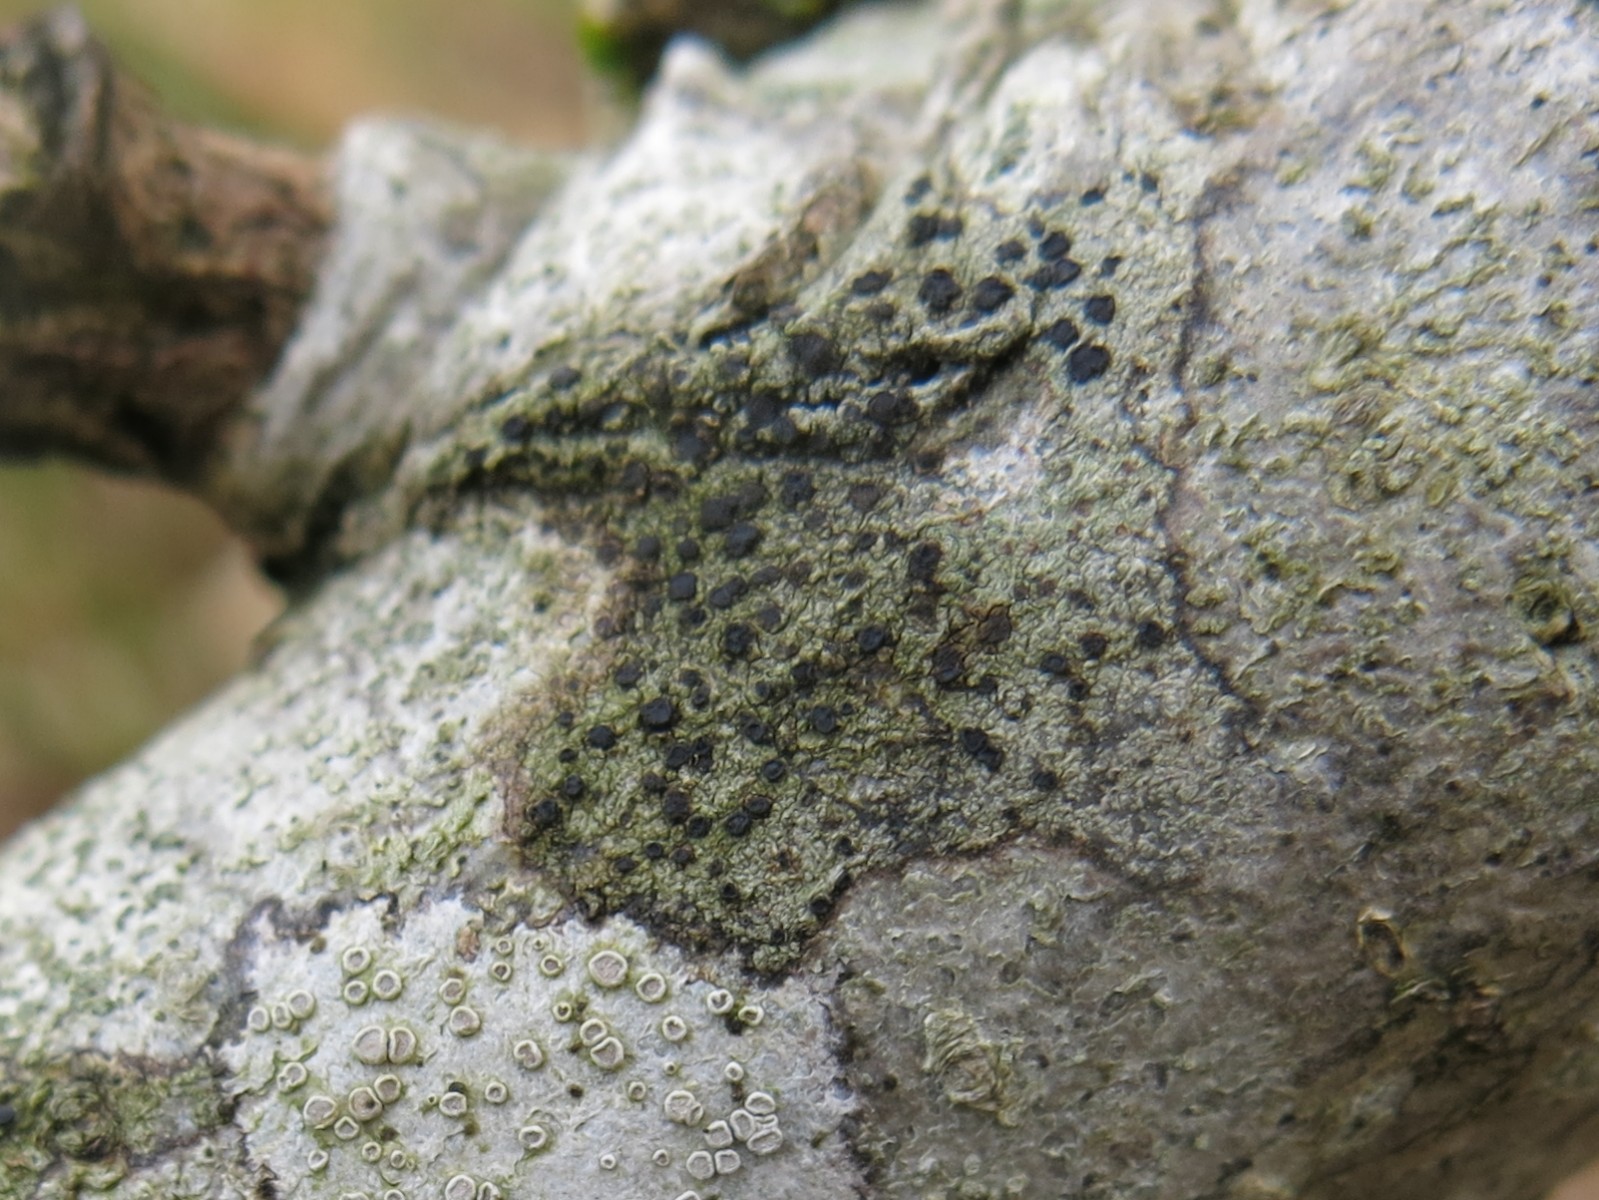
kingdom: Fungi
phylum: Ascomycota
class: Lecanoromycetes
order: Lecanorales
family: Lecanoraceae
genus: Lecidella
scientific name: Lecidella elaeochroma
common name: grågrøn skivelav
